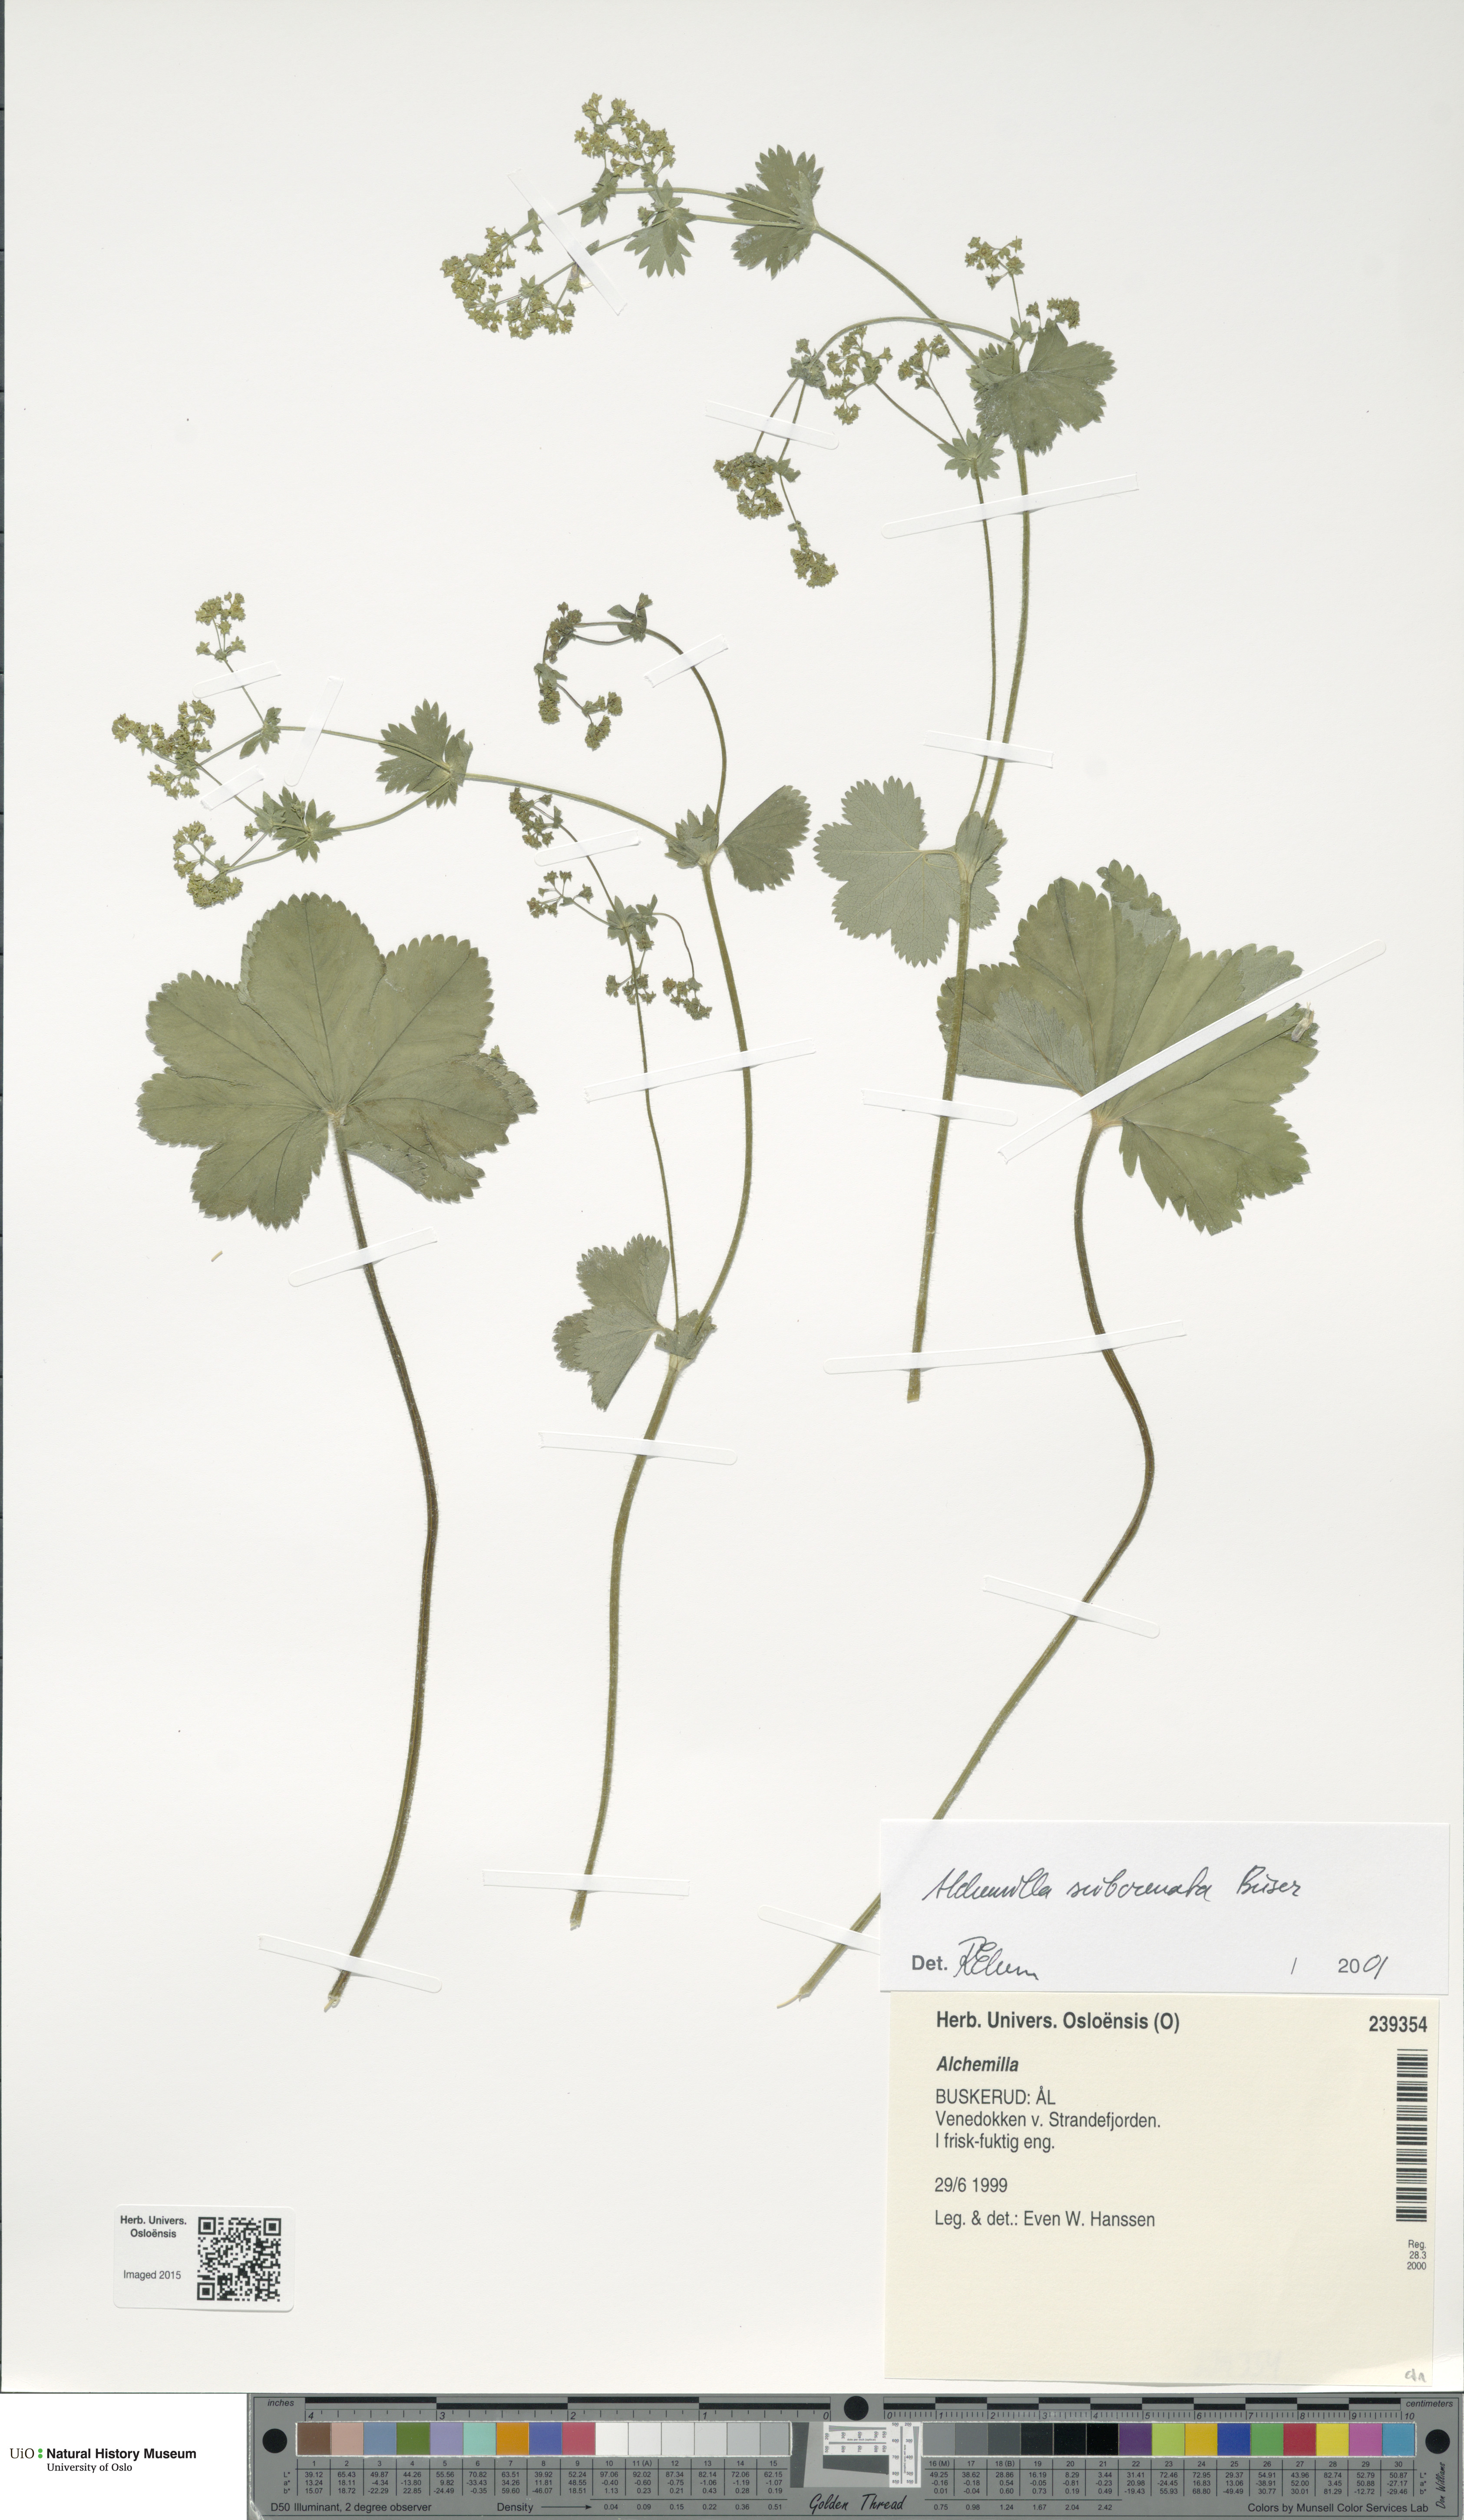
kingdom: Plantae
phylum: Tracheophyta
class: Magnoliopsida
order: Rosales
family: Rosaceae
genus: Alchemilla
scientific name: Alchemilla subcrenata
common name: Broadtooth lady's mantle
